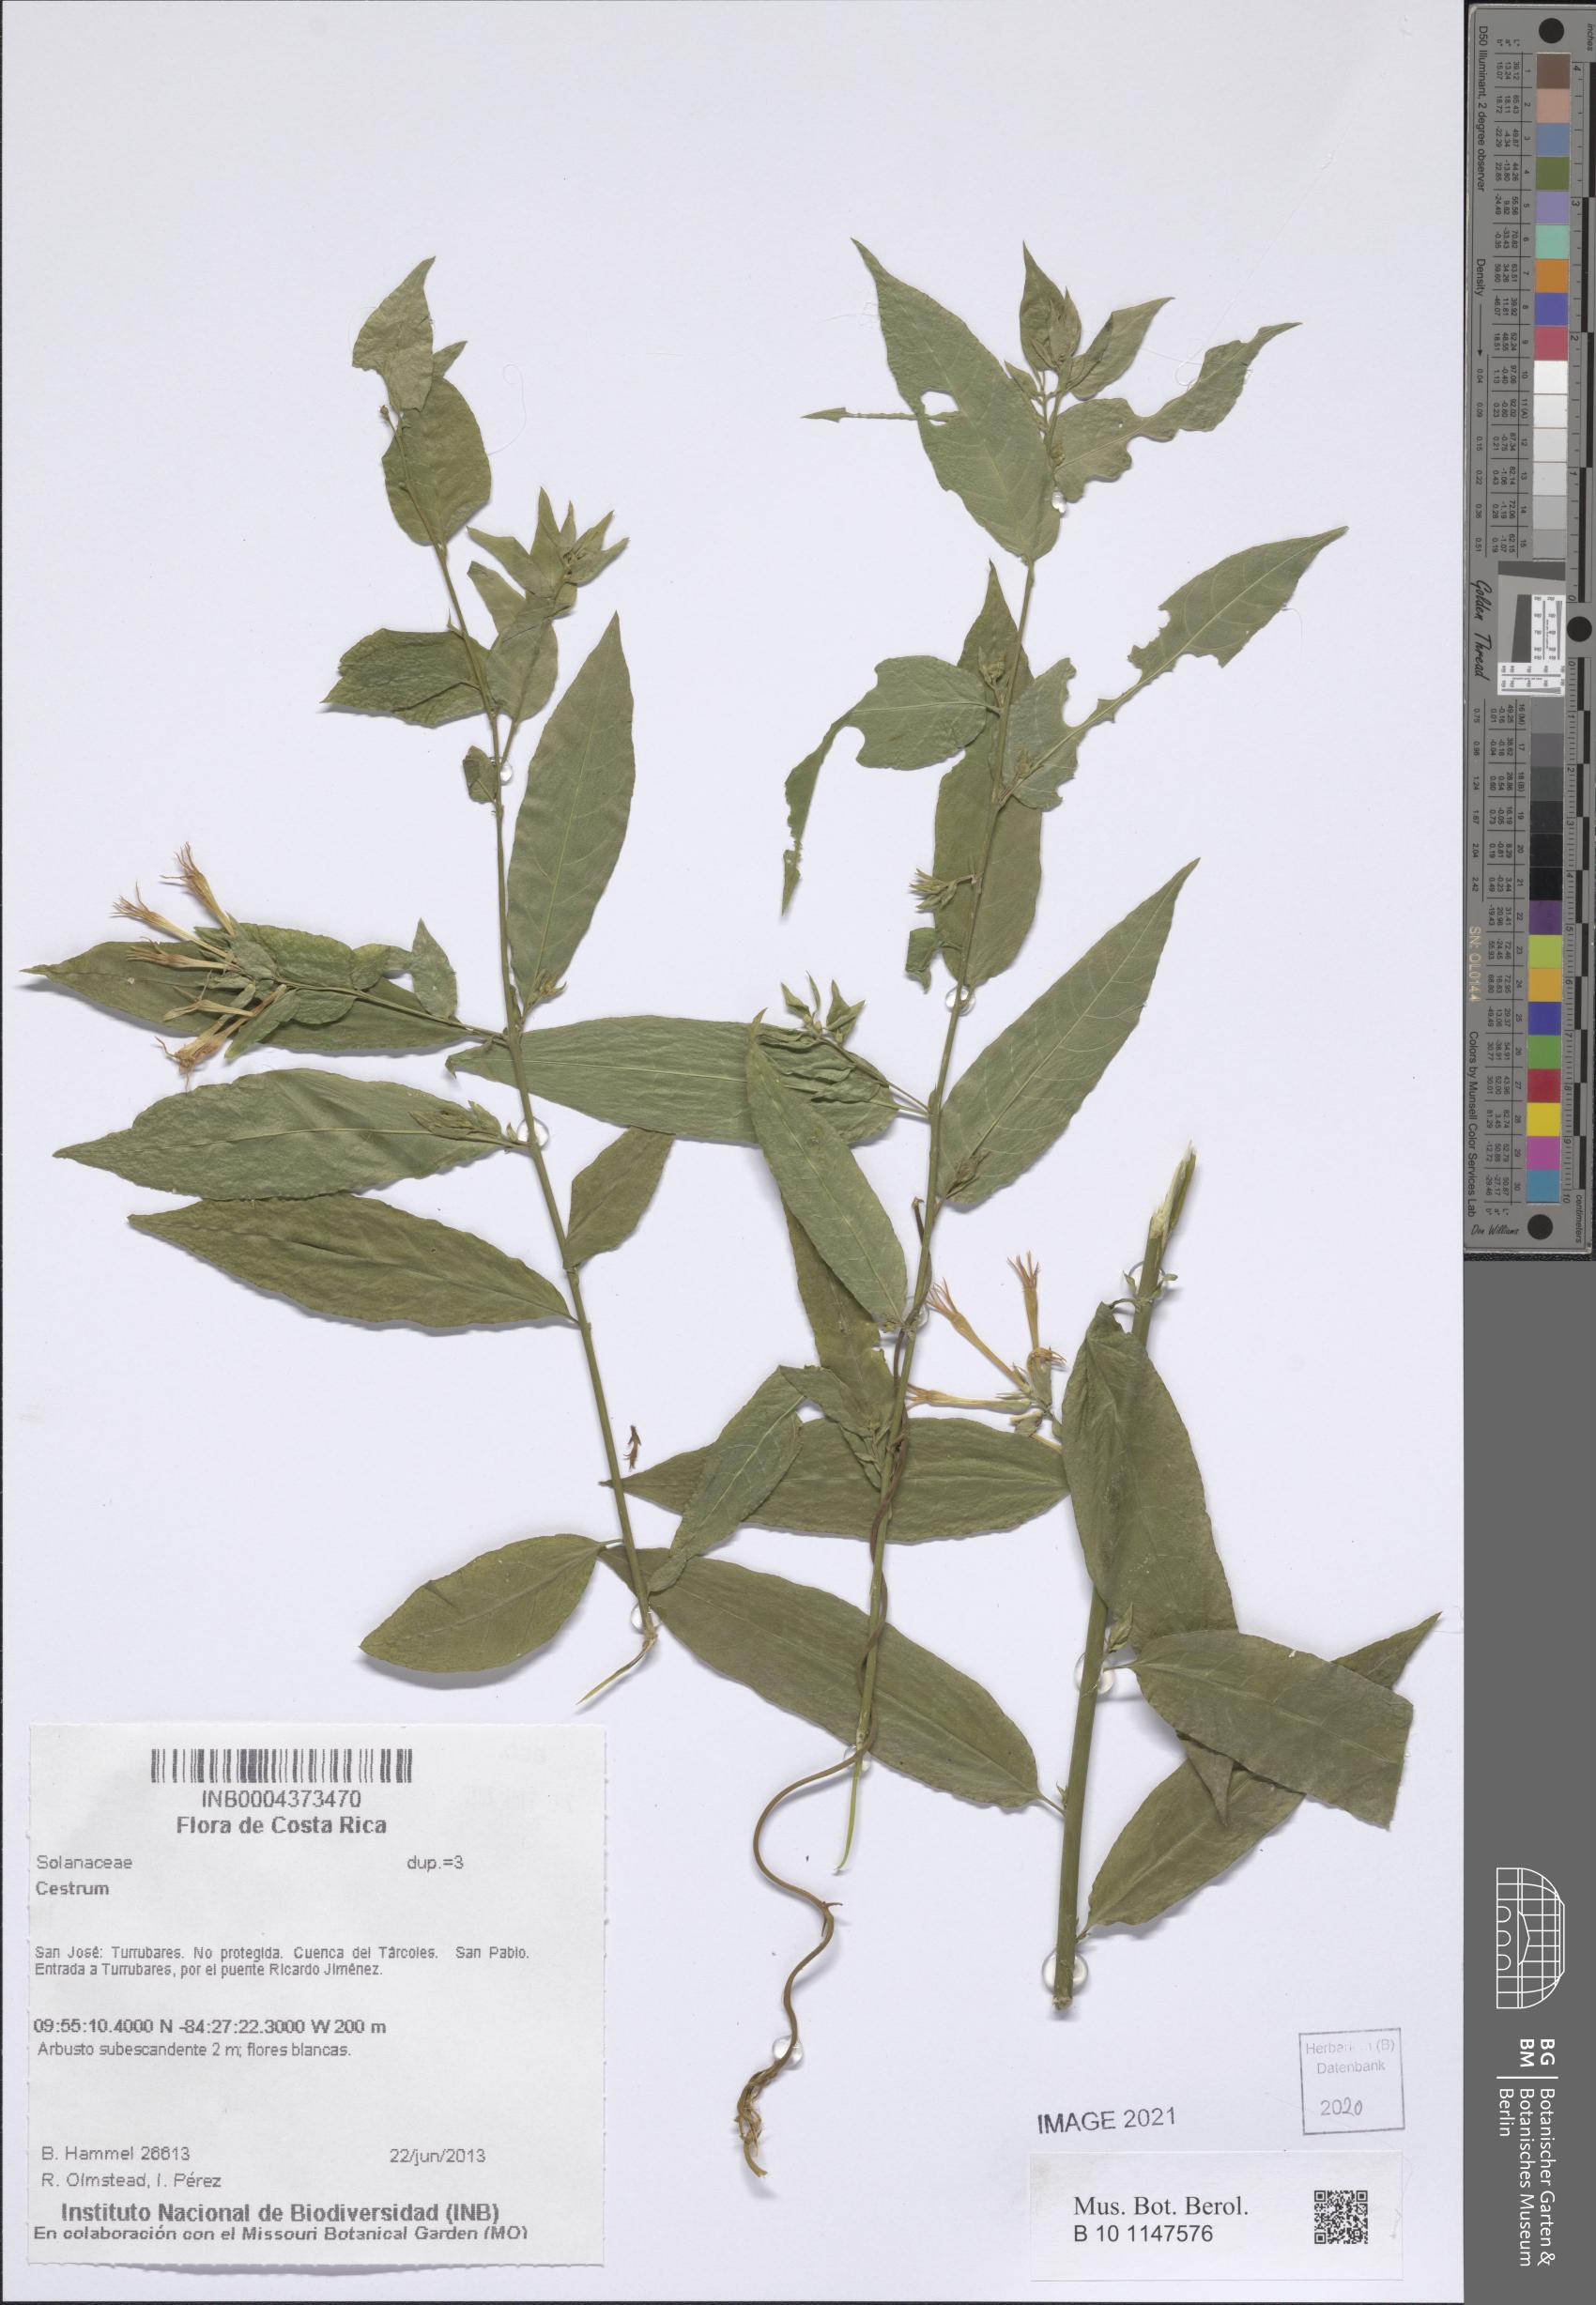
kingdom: Plantae
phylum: Tracheophyta
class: Magnoliopsida
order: Solanales
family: Solanaceae
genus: Cestrum
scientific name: Cestrum
